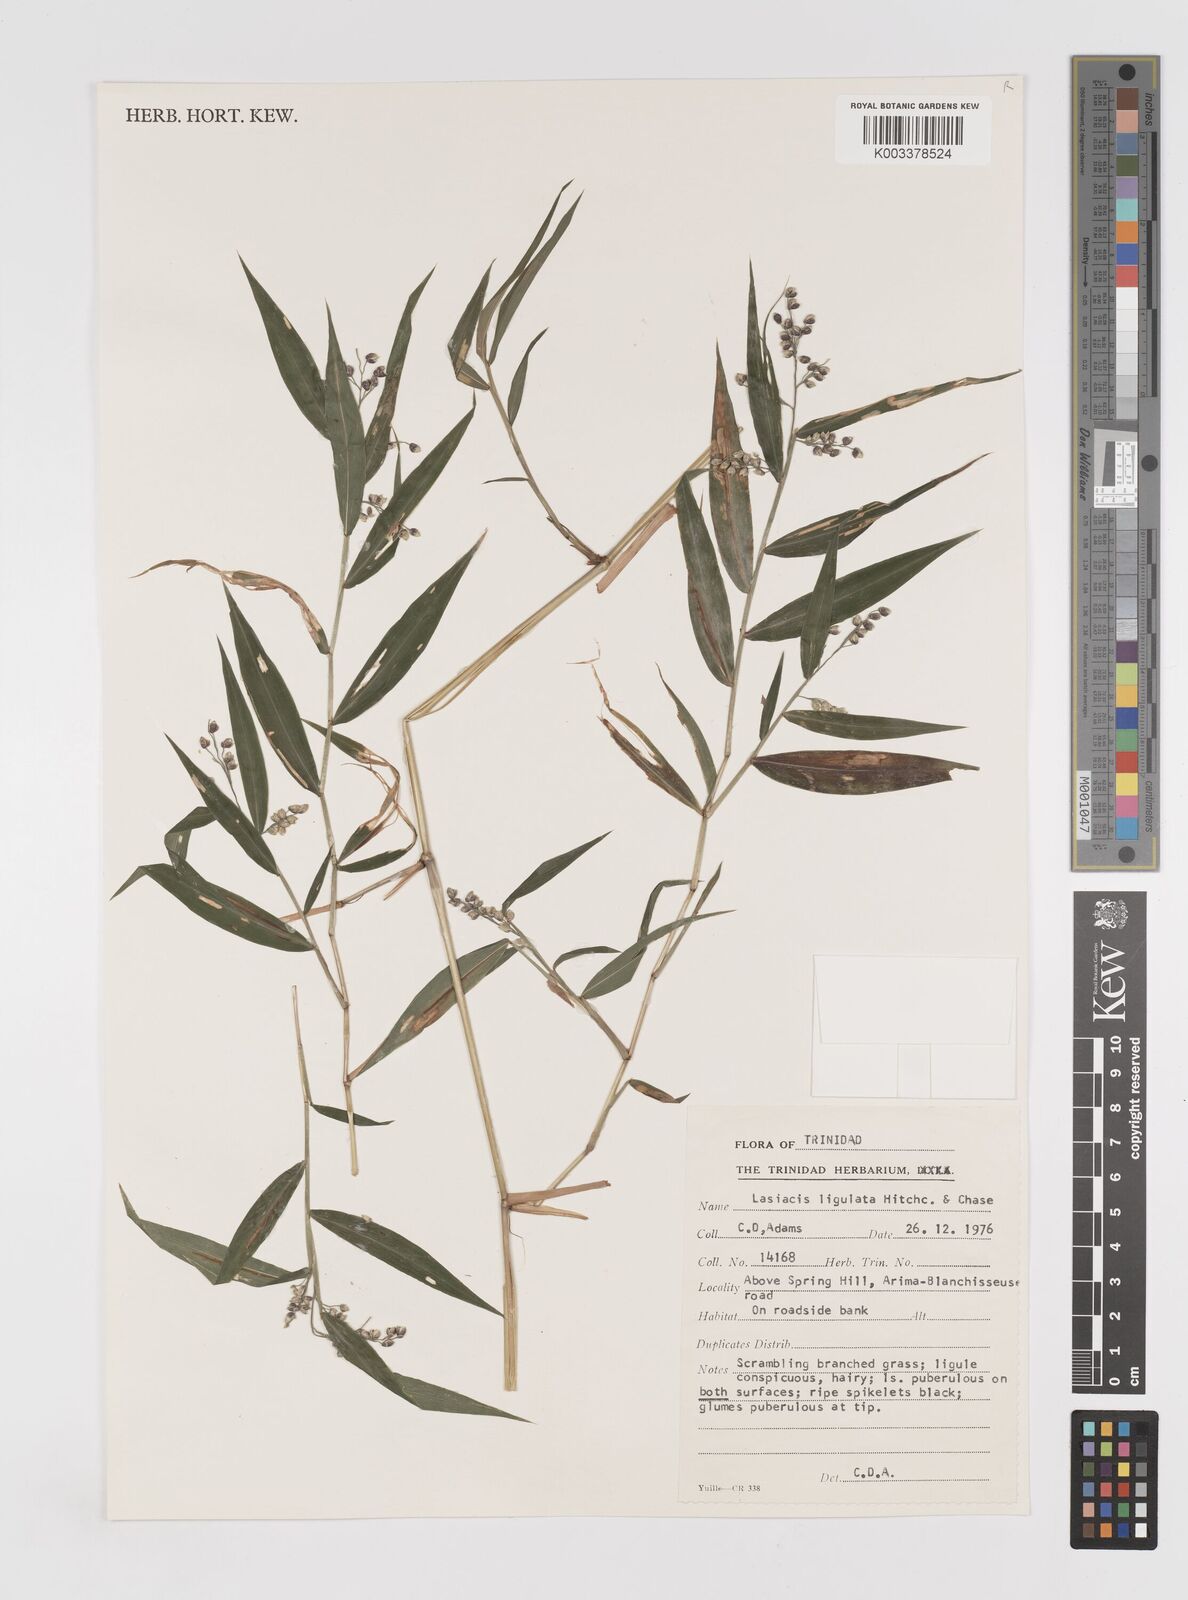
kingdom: Plantae
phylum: Tracheophyta
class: Liliopsida
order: Poales
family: Poaceae
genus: Lasiacis
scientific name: Lasiacis ligulata
